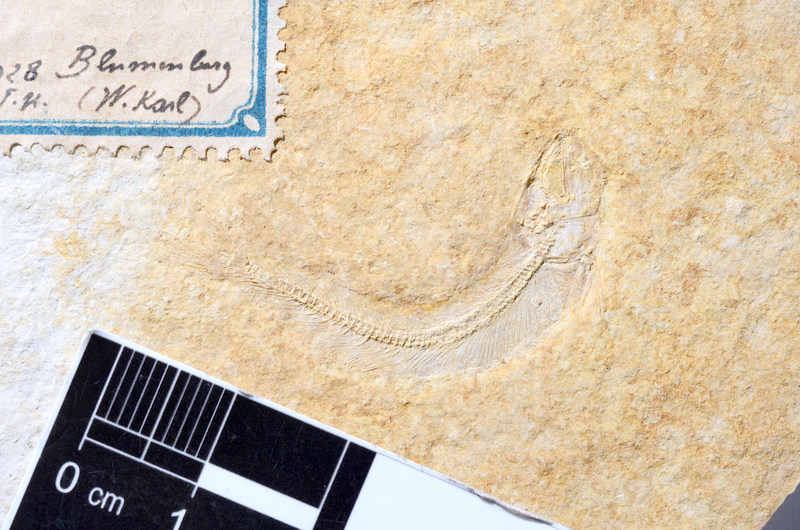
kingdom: Animalia
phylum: Chordata
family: Allothrissopidae
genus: Allothrissops
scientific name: Allothrissops mesogaster
